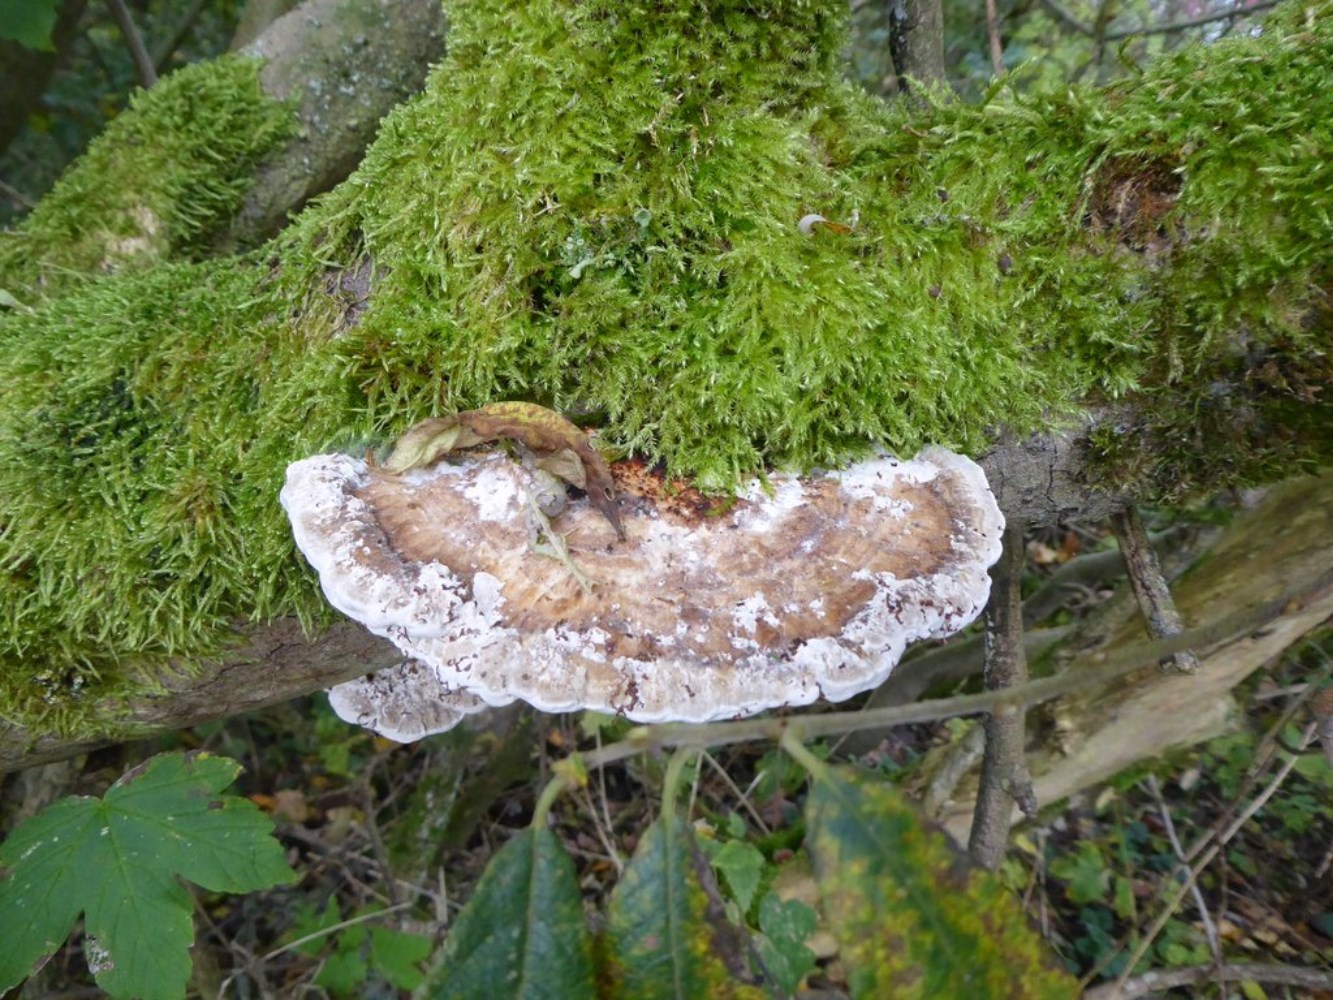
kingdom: Fungi
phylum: Basidiomycota
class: Agaricomycetes
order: Polyporales
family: Polyporaceae
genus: Daedaleopsis
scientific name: Daedaleopsis confragosa
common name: rødmende læderporesvamp
